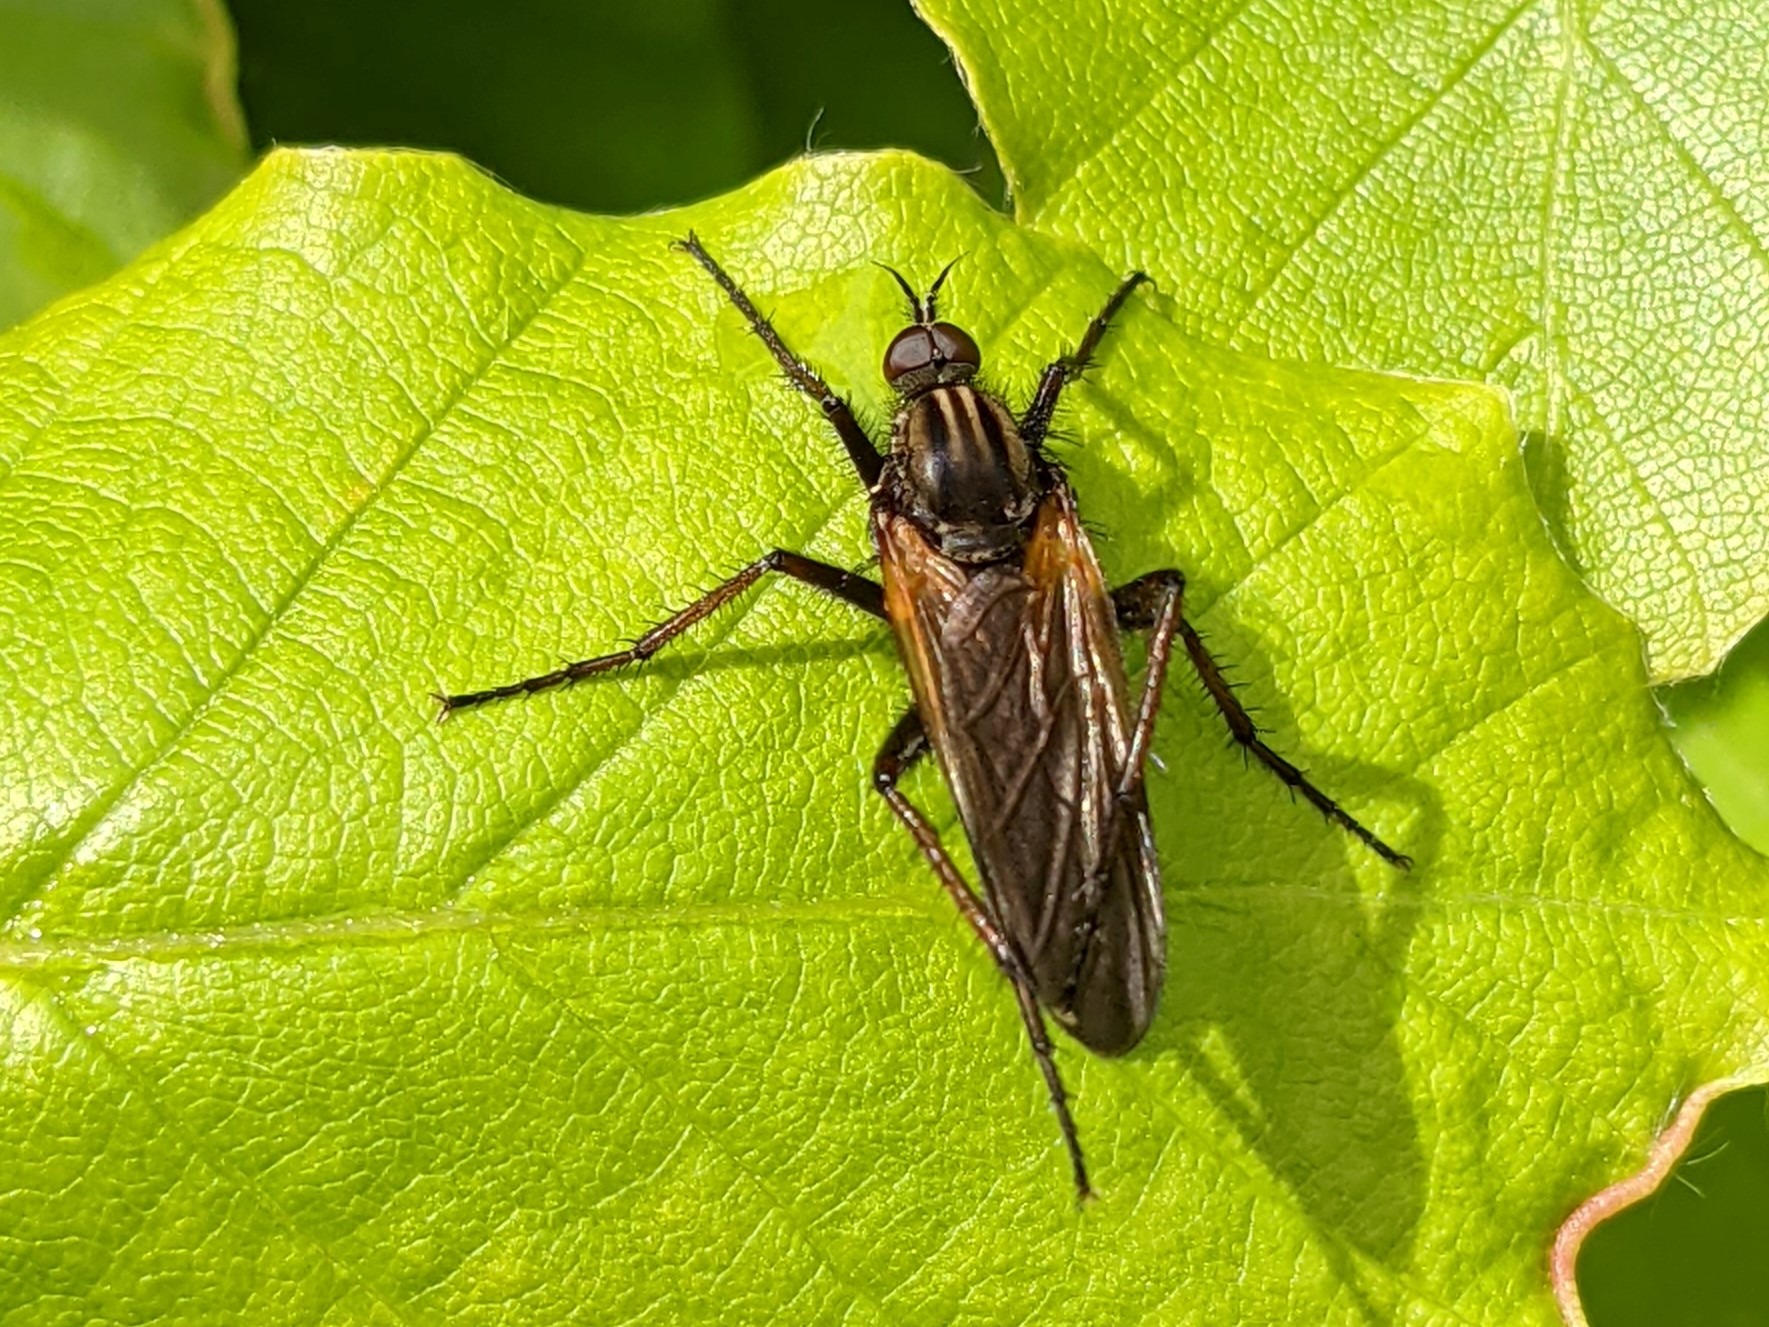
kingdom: Animalia
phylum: Arthropoda
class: Insecta
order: Diptera
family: Empididae
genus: Empis
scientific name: Empis tessellata
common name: Stor danseflue
